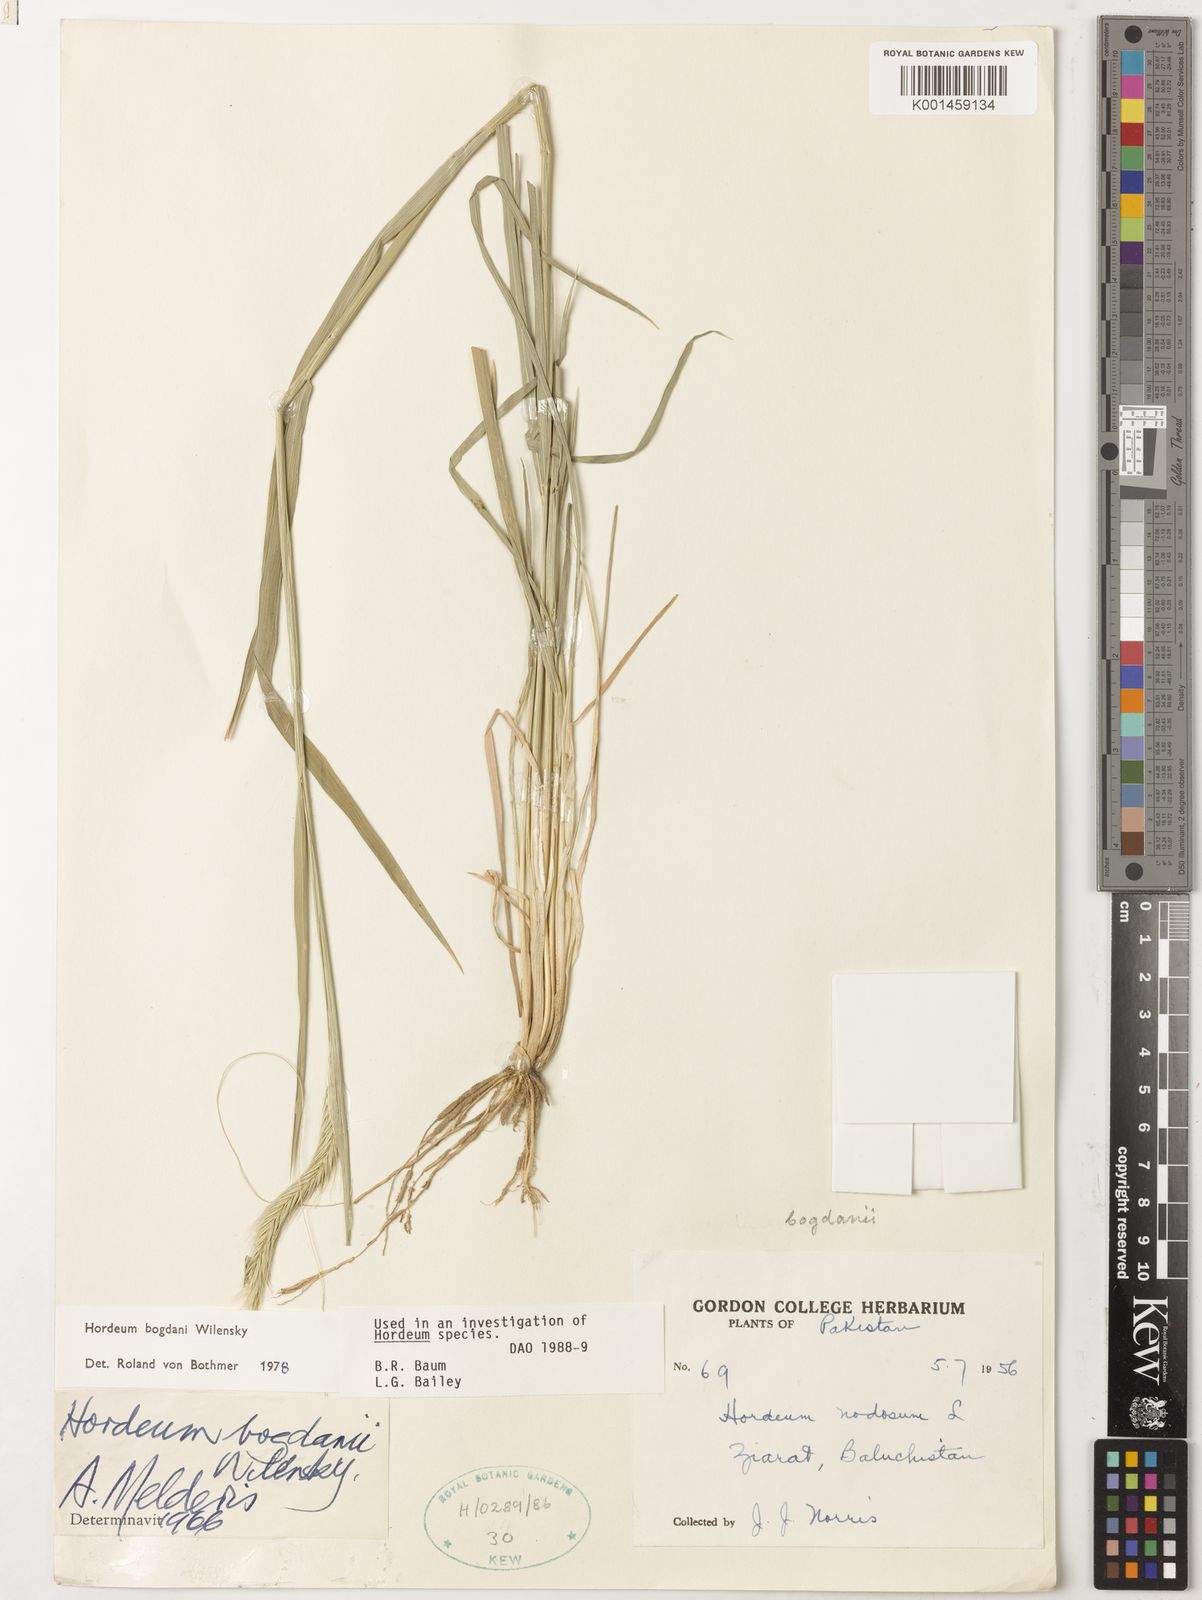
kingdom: Plantae
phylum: Tracheophyta
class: Liliopsida
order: Poales
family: Poaceae
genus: Hordeum
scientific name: Hordeum bogdanii
